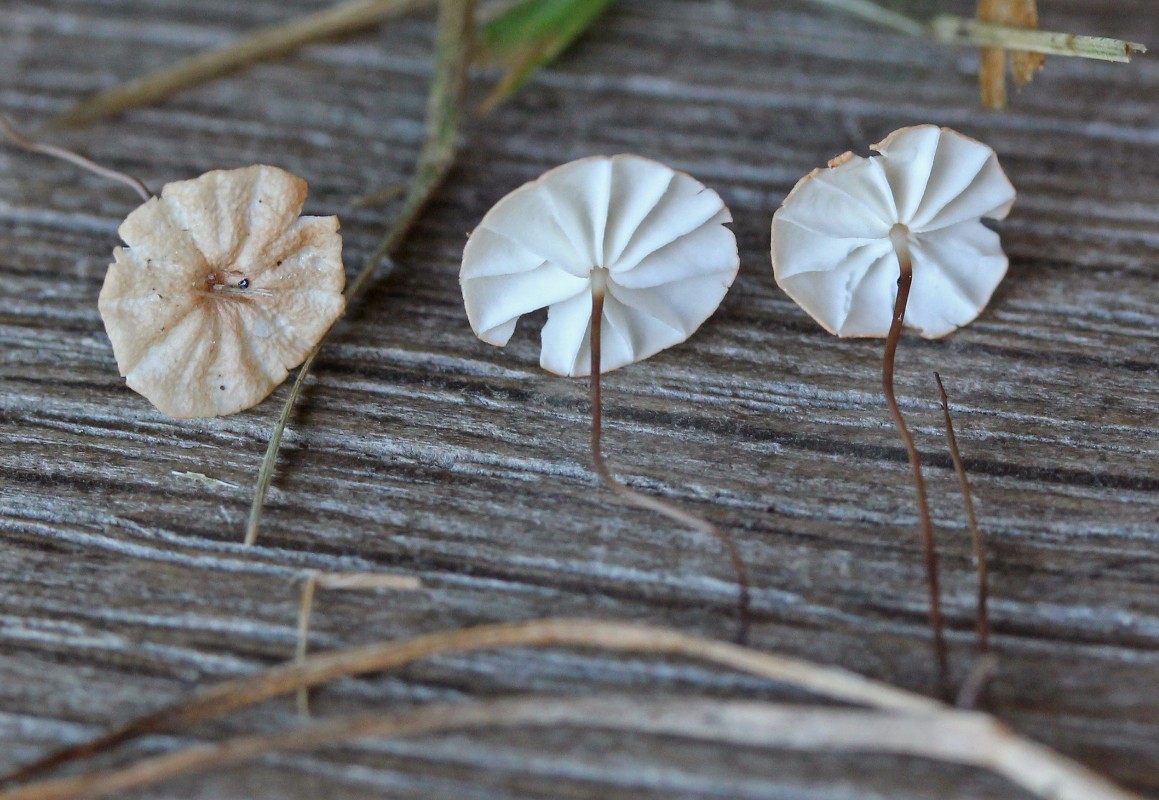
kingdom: Fungi
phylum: Basidiomycota
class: Agaricomycetes
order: Agaricales
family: Marasmiaceae
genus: Marasmius
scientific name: Marasmius curreyi
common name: teglrød bruskhat
